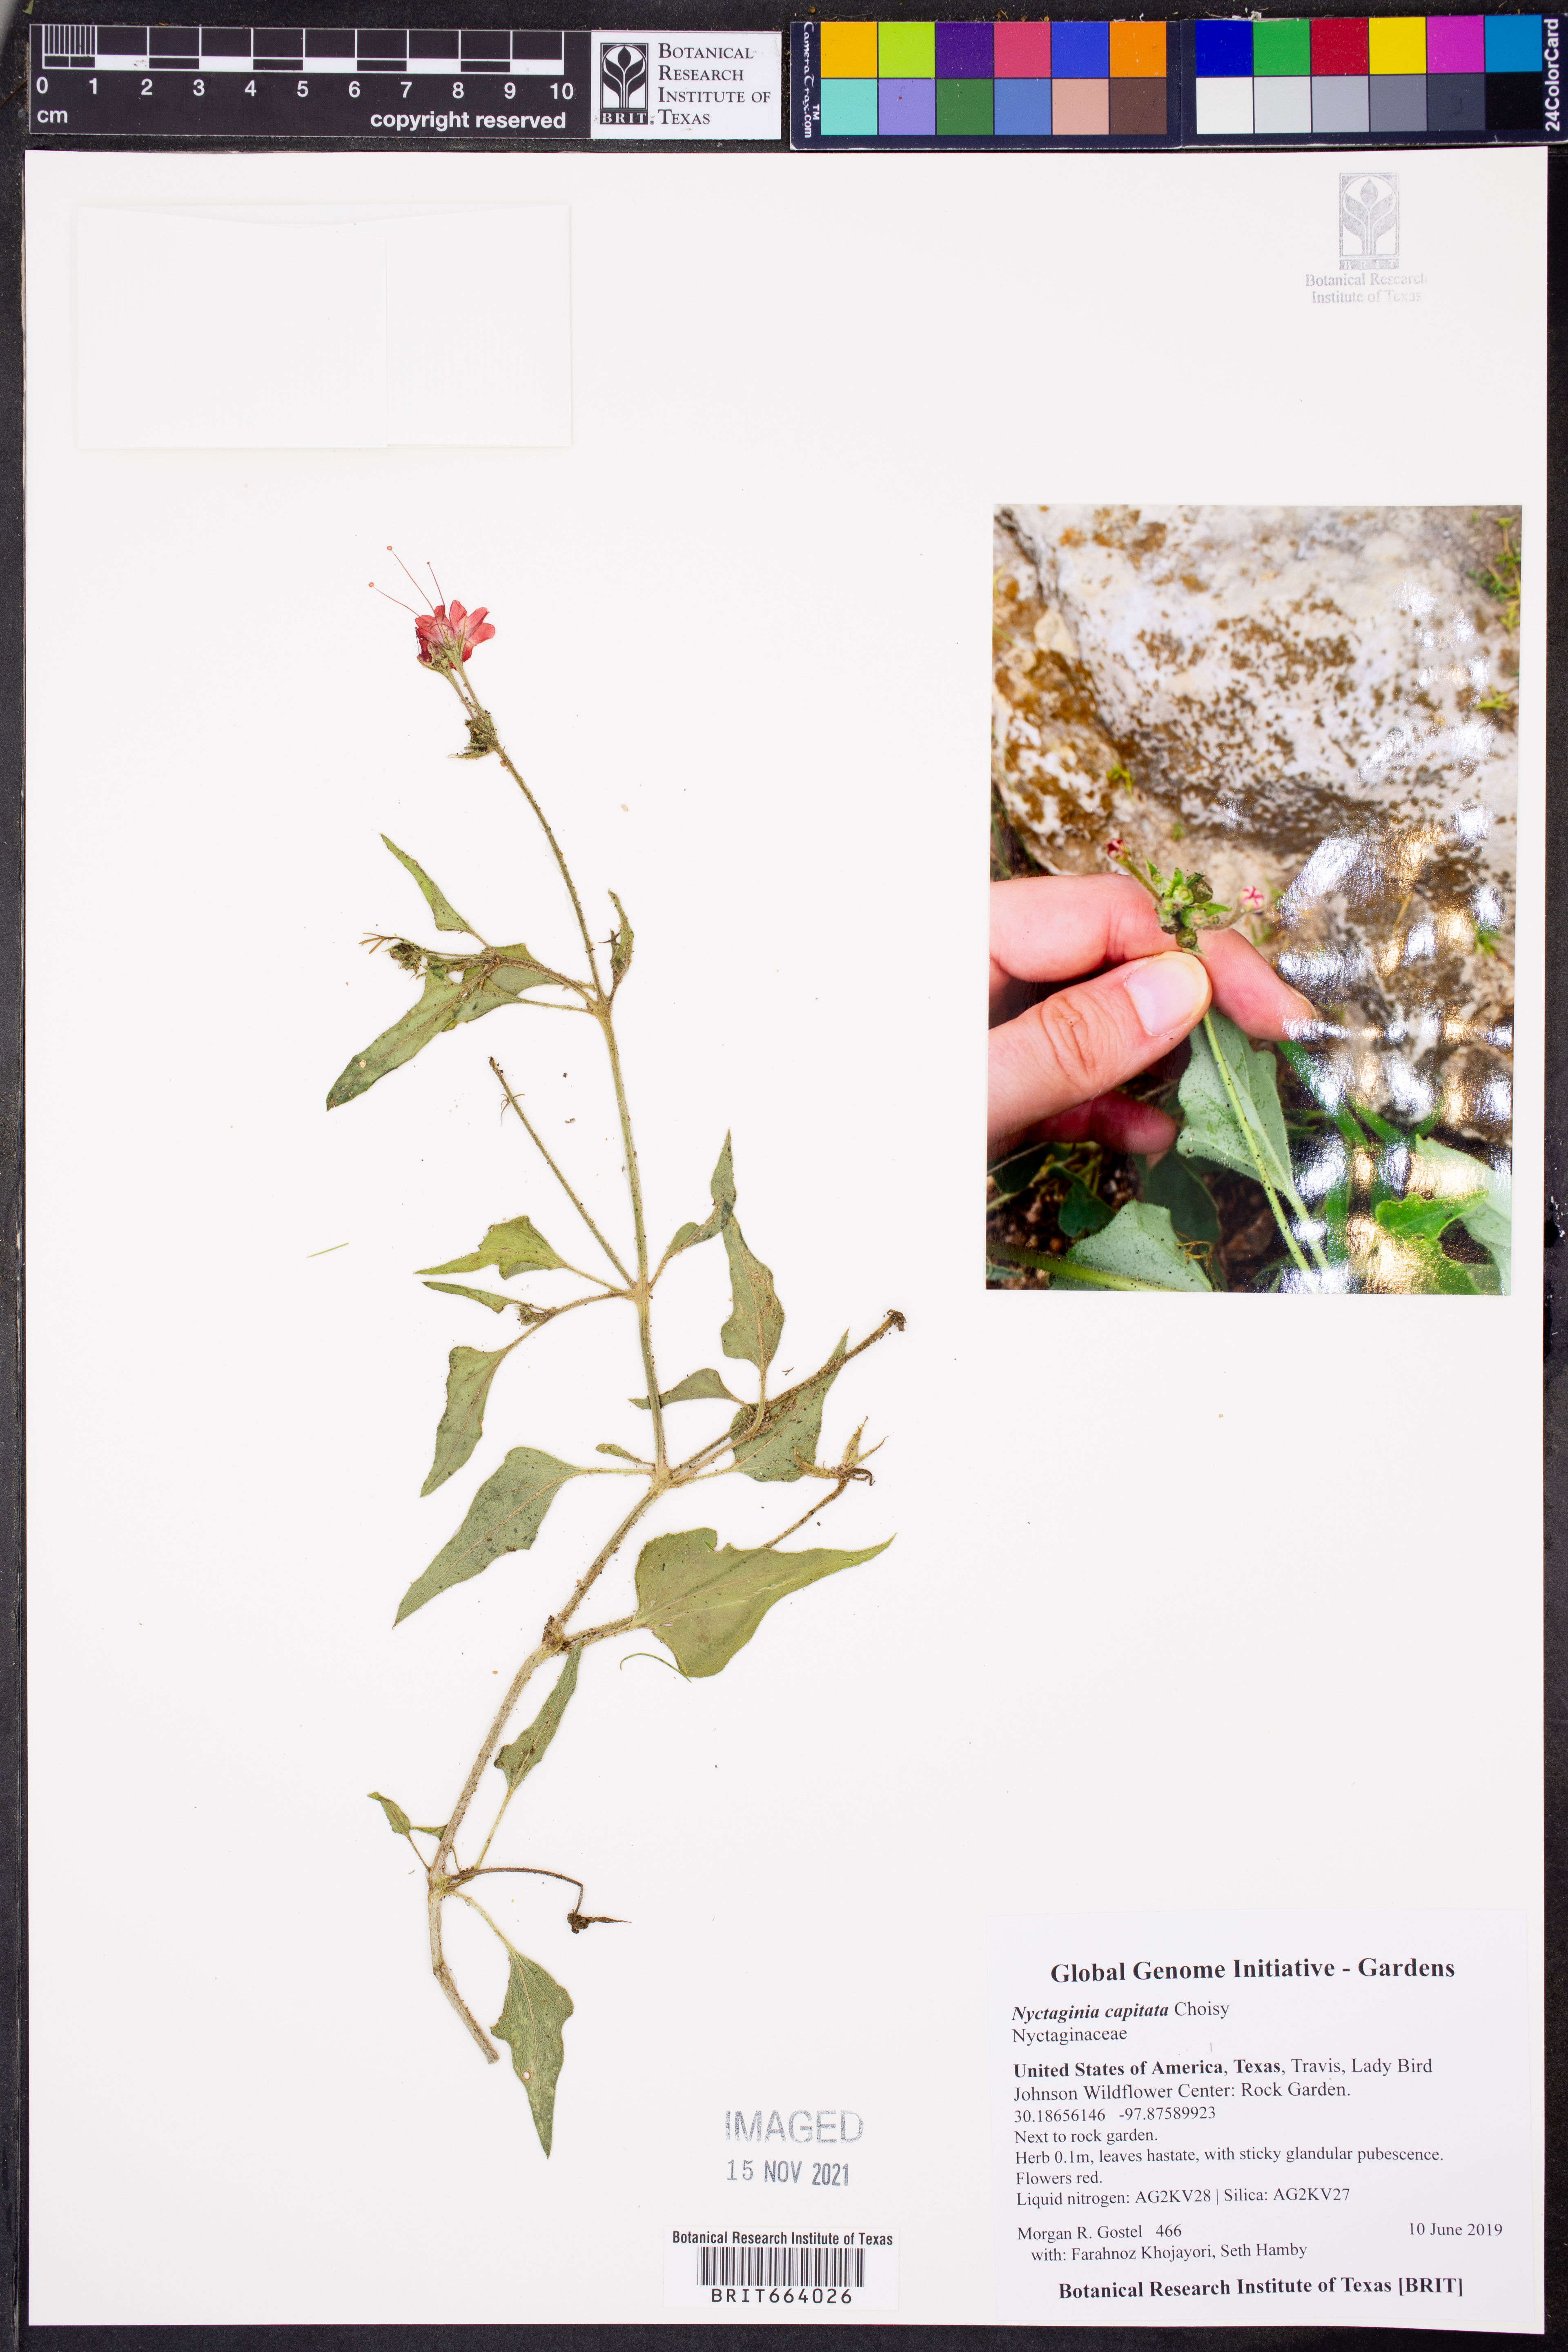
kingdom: Plantae
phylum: Tracheophyta
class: Magnoliopsida
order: Caryophyllales
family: Nyctaginaceae
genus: Nyctaginia
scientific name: Nyctaginia capitata
